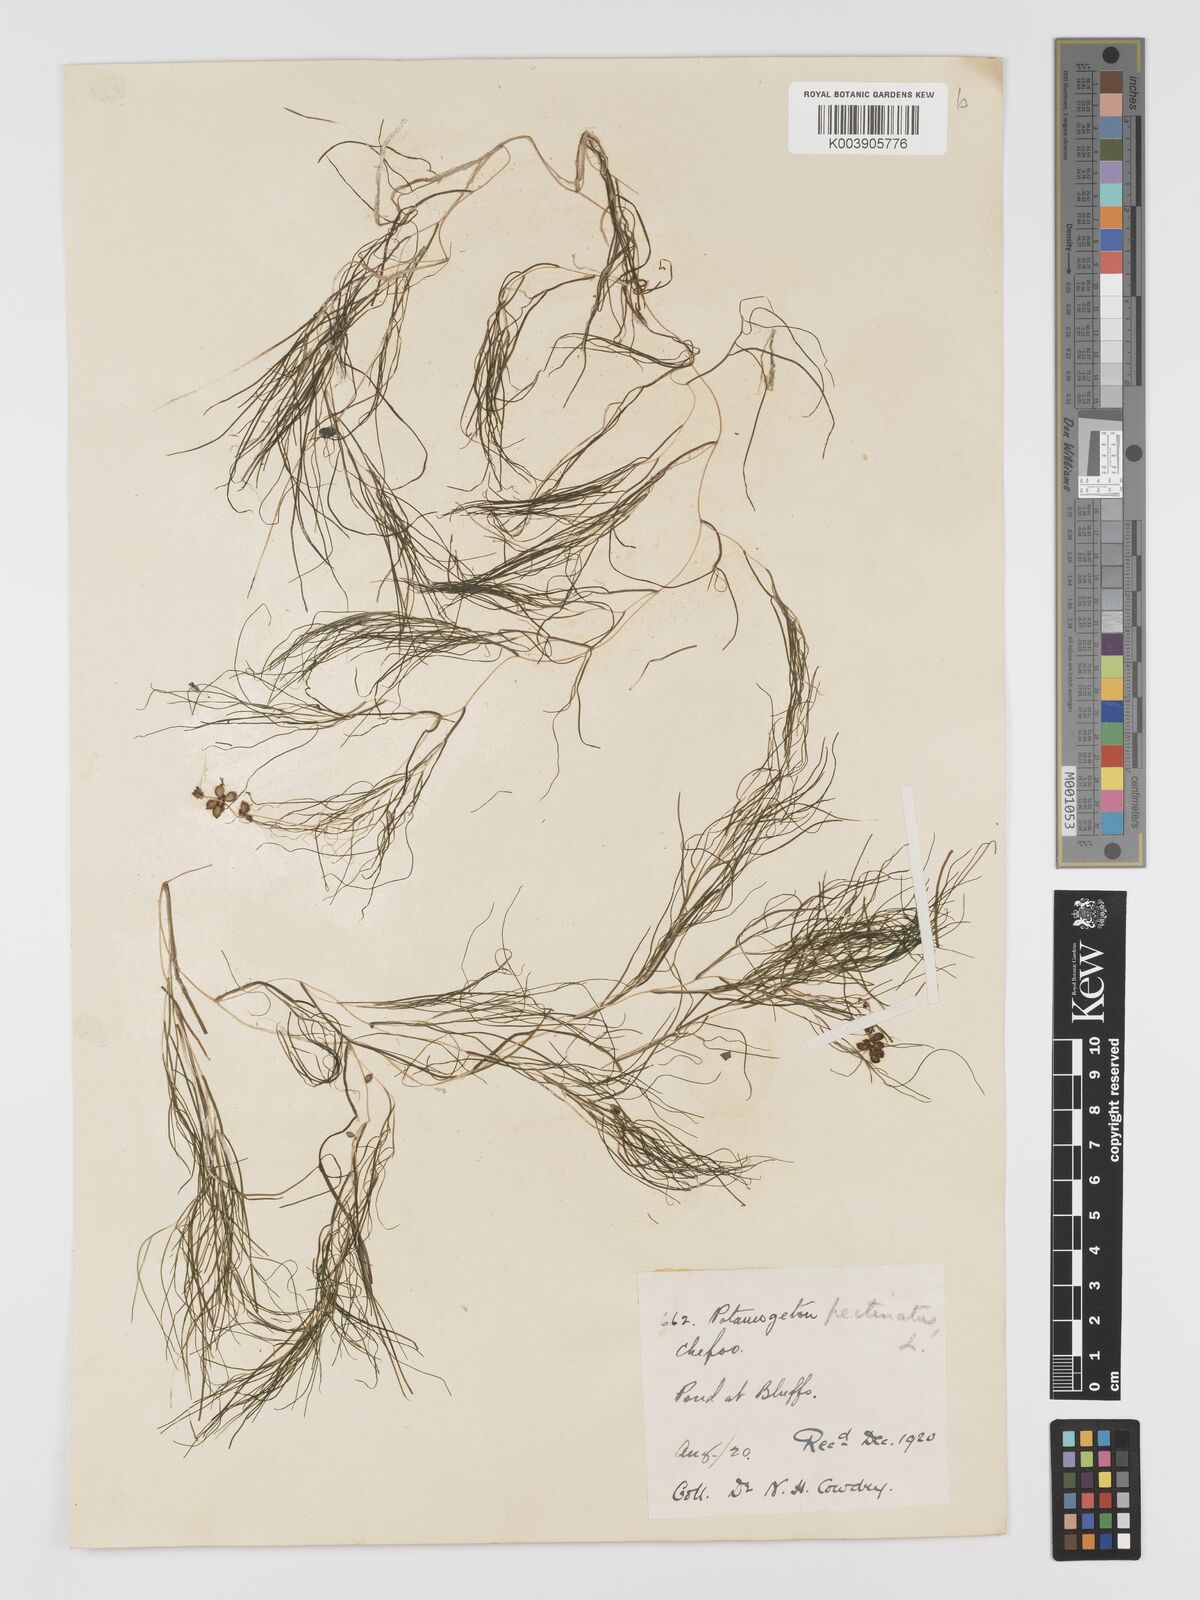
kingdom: Plantae
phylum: Tracheophyta
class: Liliopsida
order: Alismatales
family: Potamogetonaceae
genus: Stuckenia
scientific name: Stuckenia pectinata
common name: Sago pondweed
